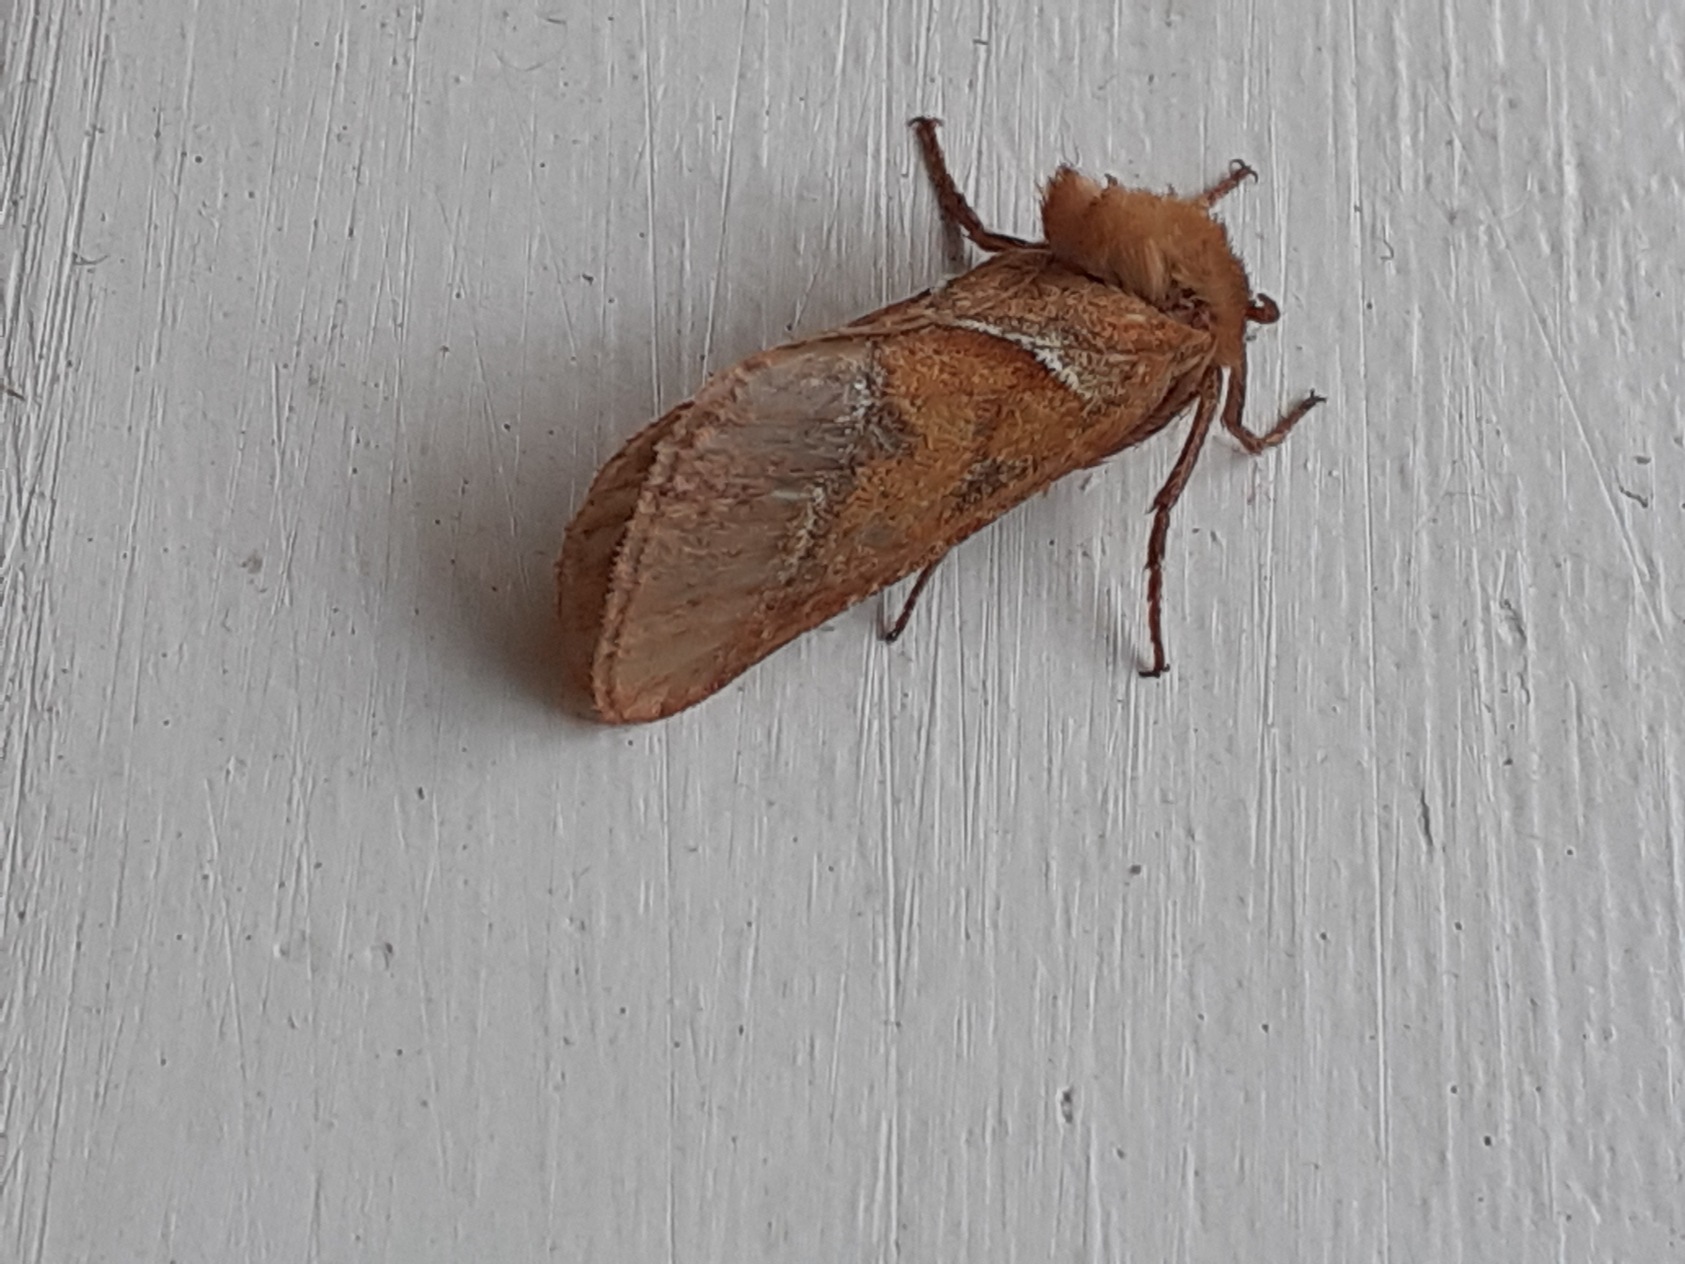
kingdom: Animalia
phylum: Arthropoda
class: Insecta
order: Lepidoptera
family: Hepialidae
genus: Triodia
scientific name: Triodia sylvina
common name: Skræpperodæder
